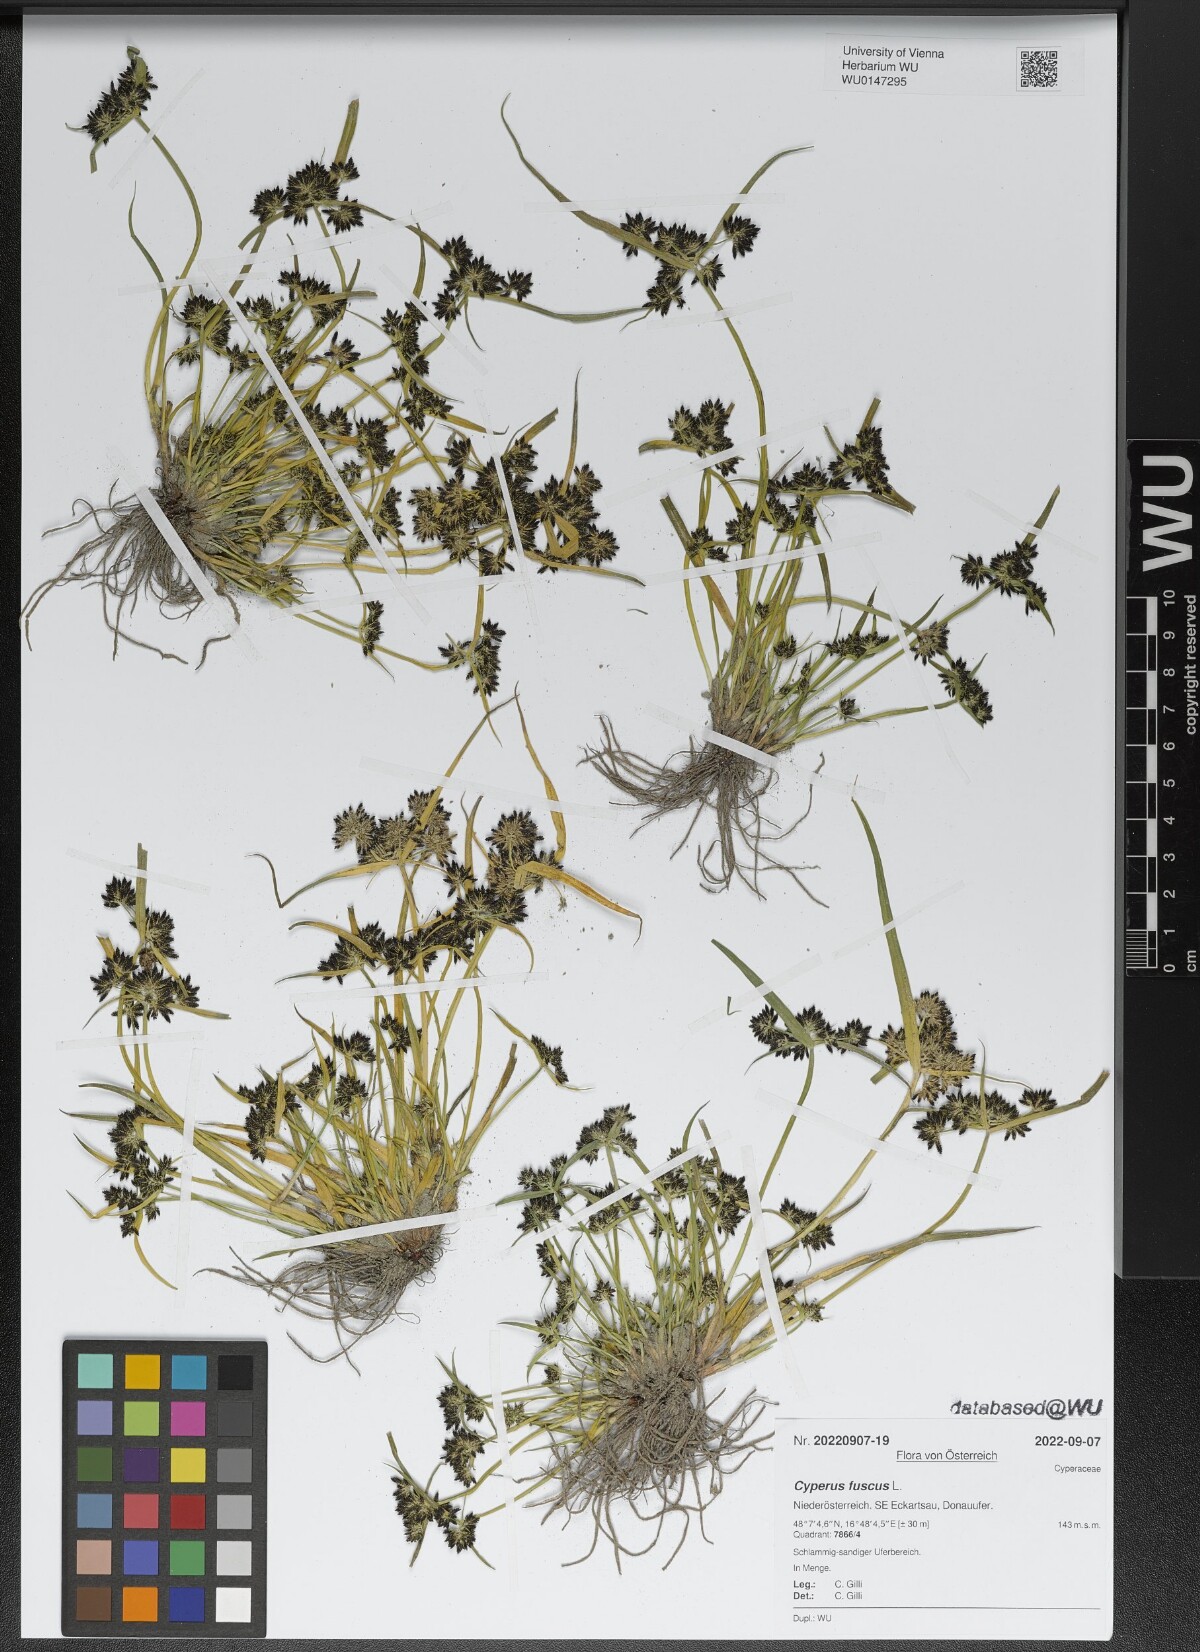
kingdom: Plantae
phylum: Tracheophyta
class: Liliopsida
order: Poales
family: Cyperaceae
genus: Cyperus
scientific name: Cyperus fuscus
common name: Brown galingale
